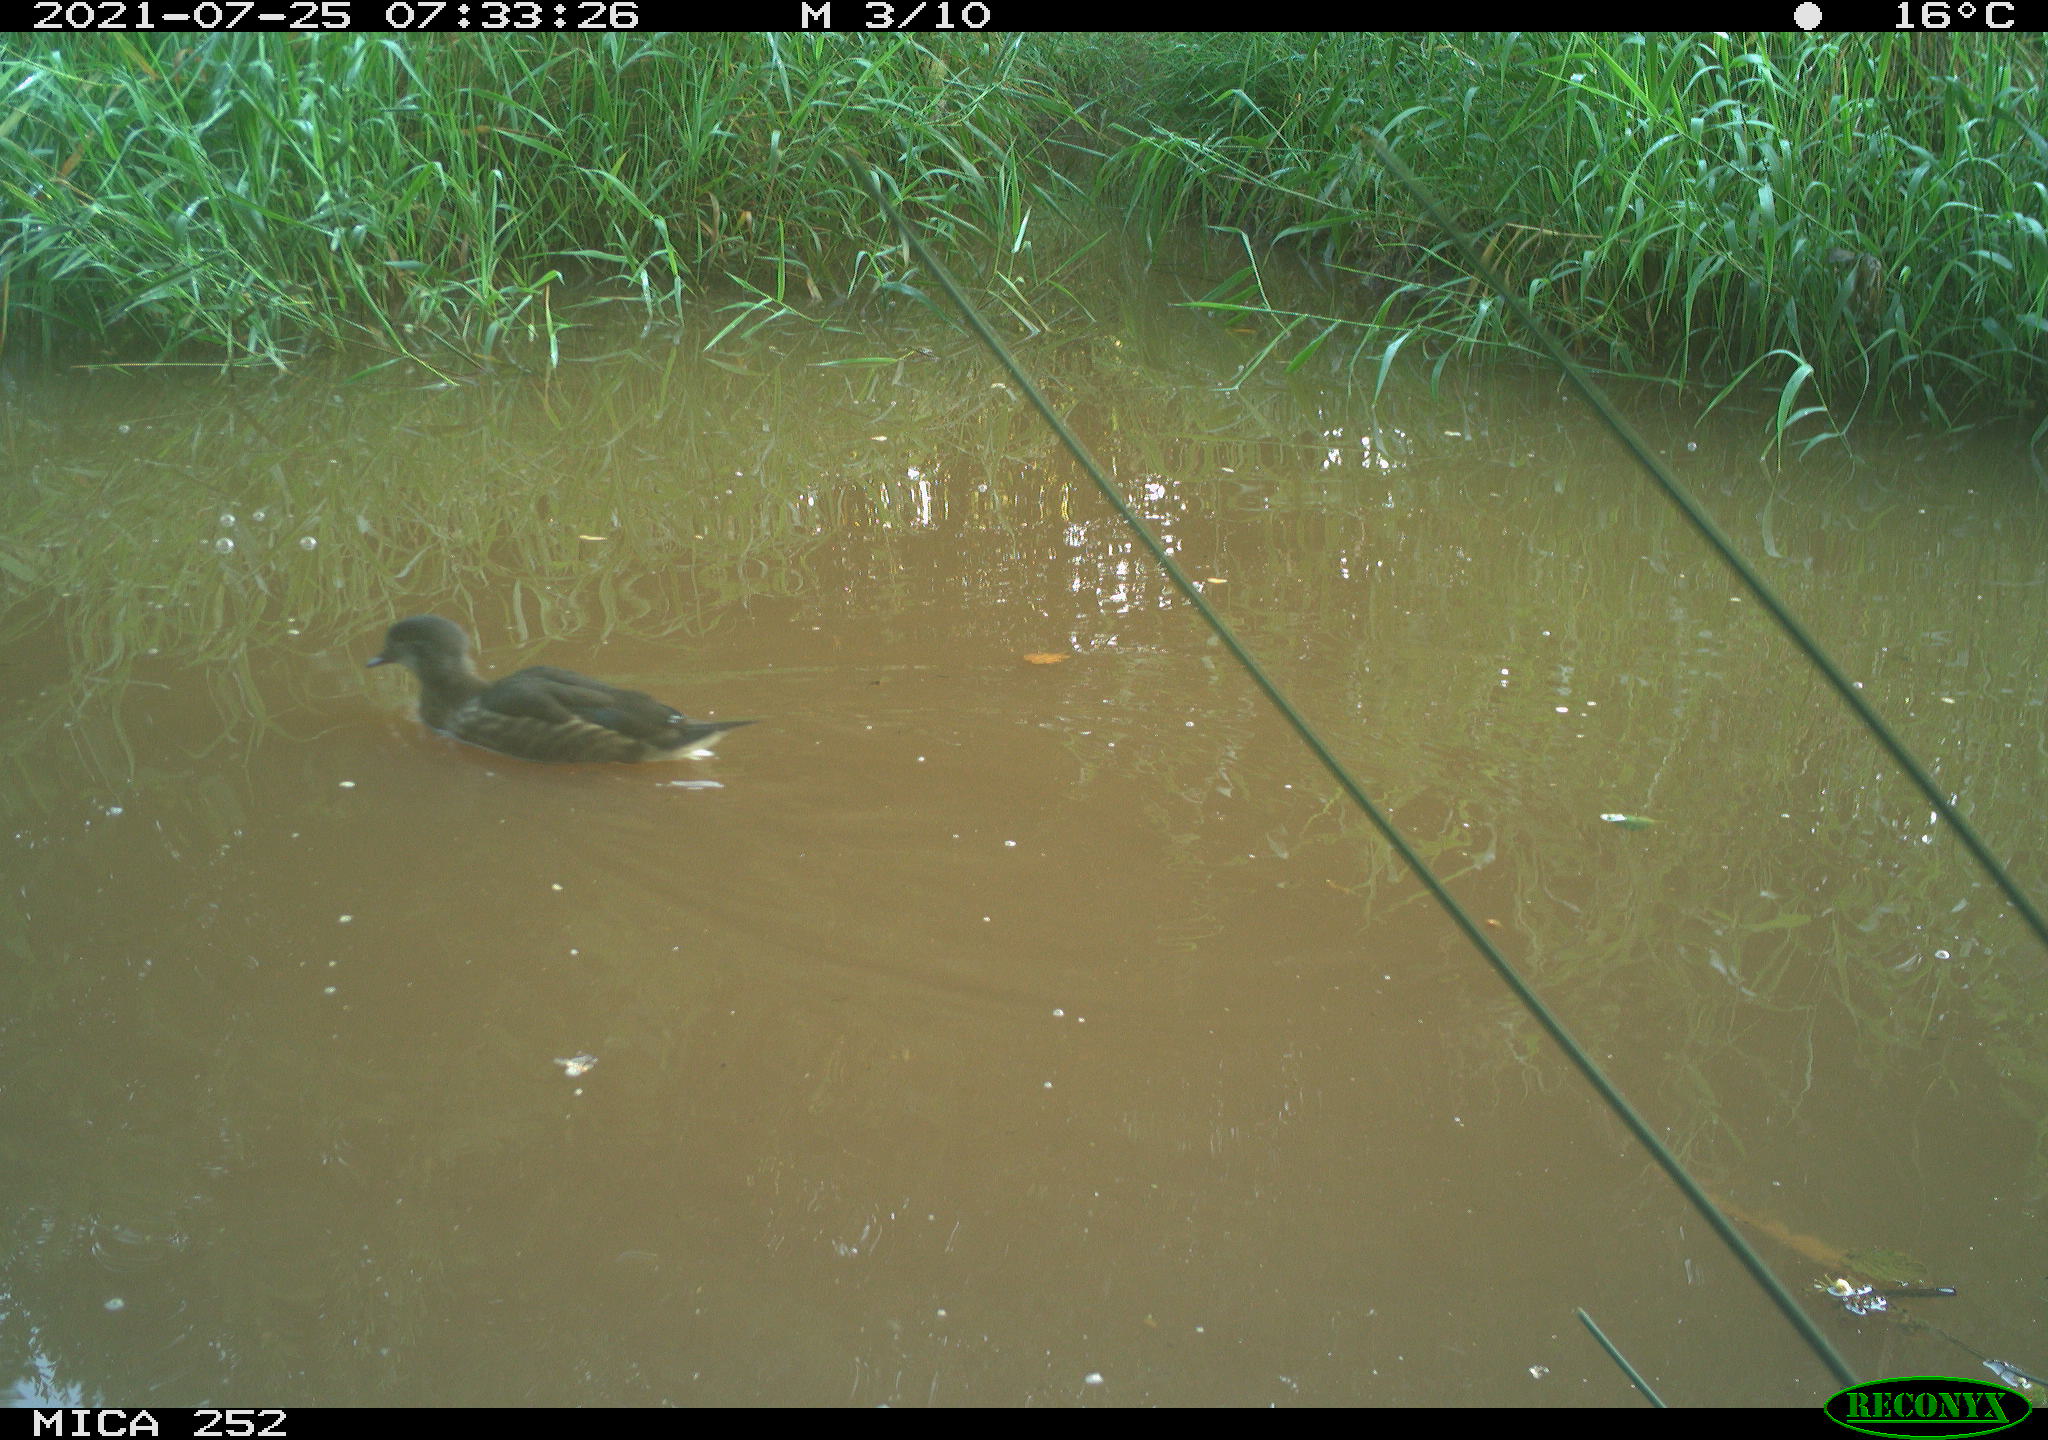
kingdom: Animalia
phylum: Chordata
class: Aves
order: Anseriformes
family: Anatidae
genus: Anas
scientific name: Anas
